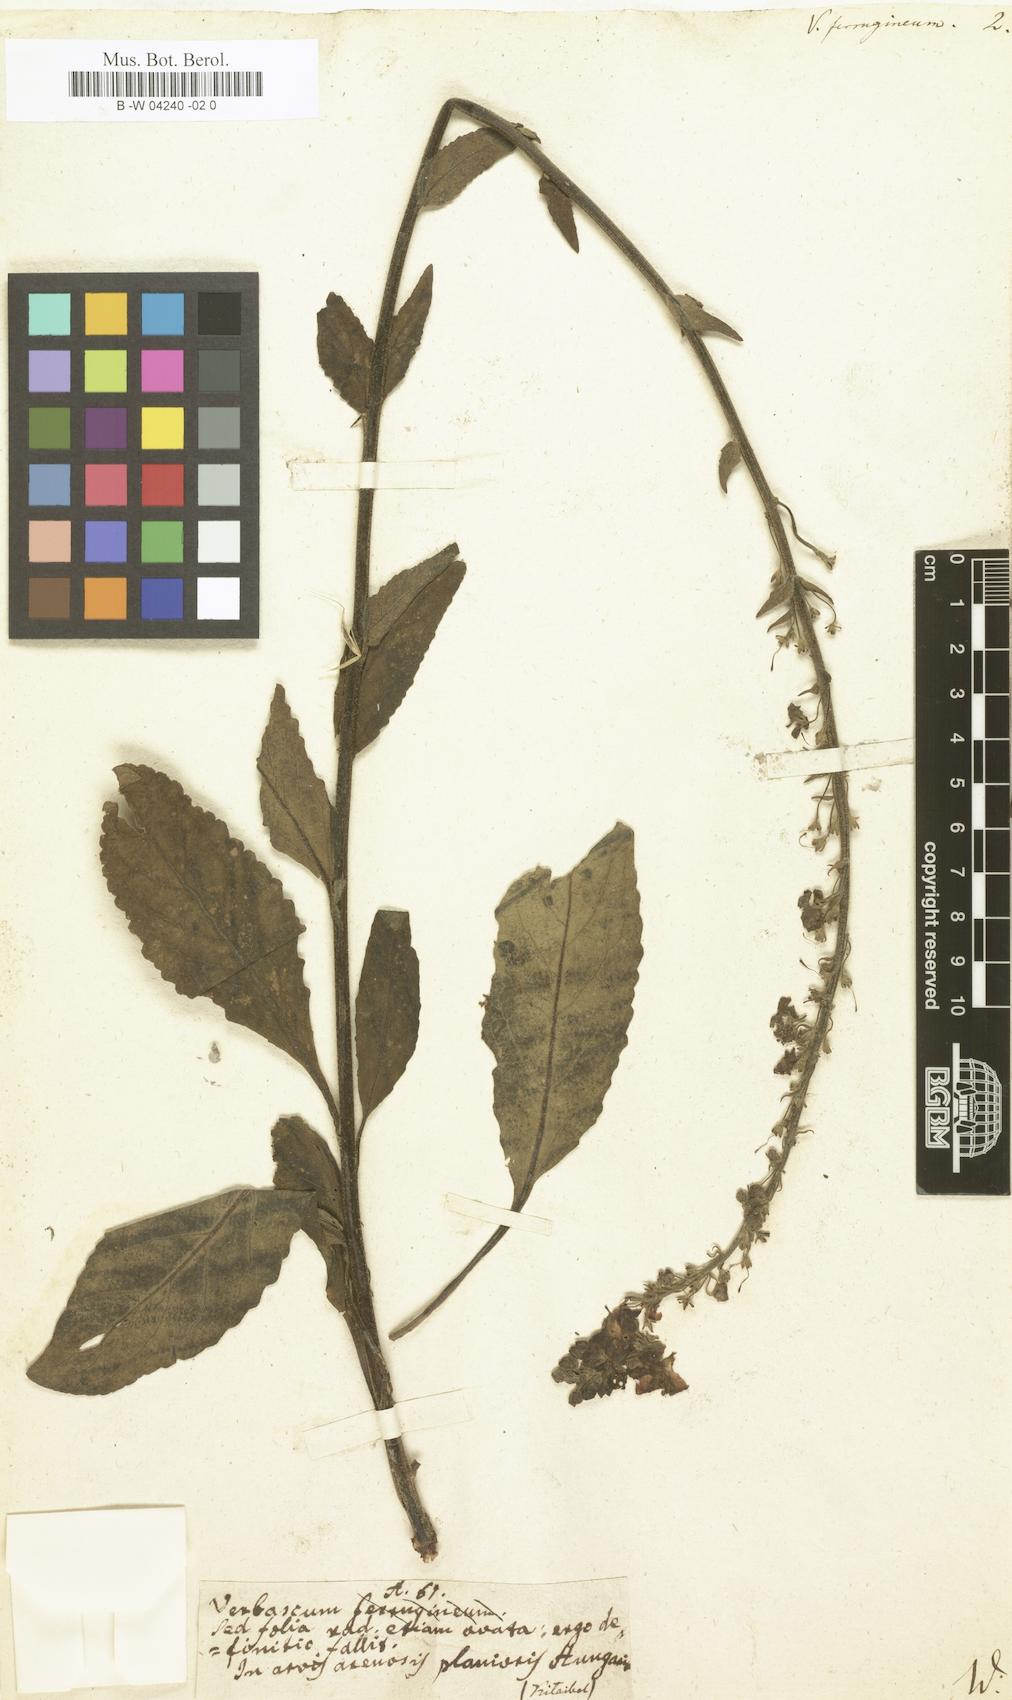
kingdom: Plantae
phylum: Tracheophyta
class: Magnoliopsida
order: Lamiales
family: Scrophulariaceae
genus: Verbascum
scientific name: Verbascum phoeniceum
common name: Purple mullein
